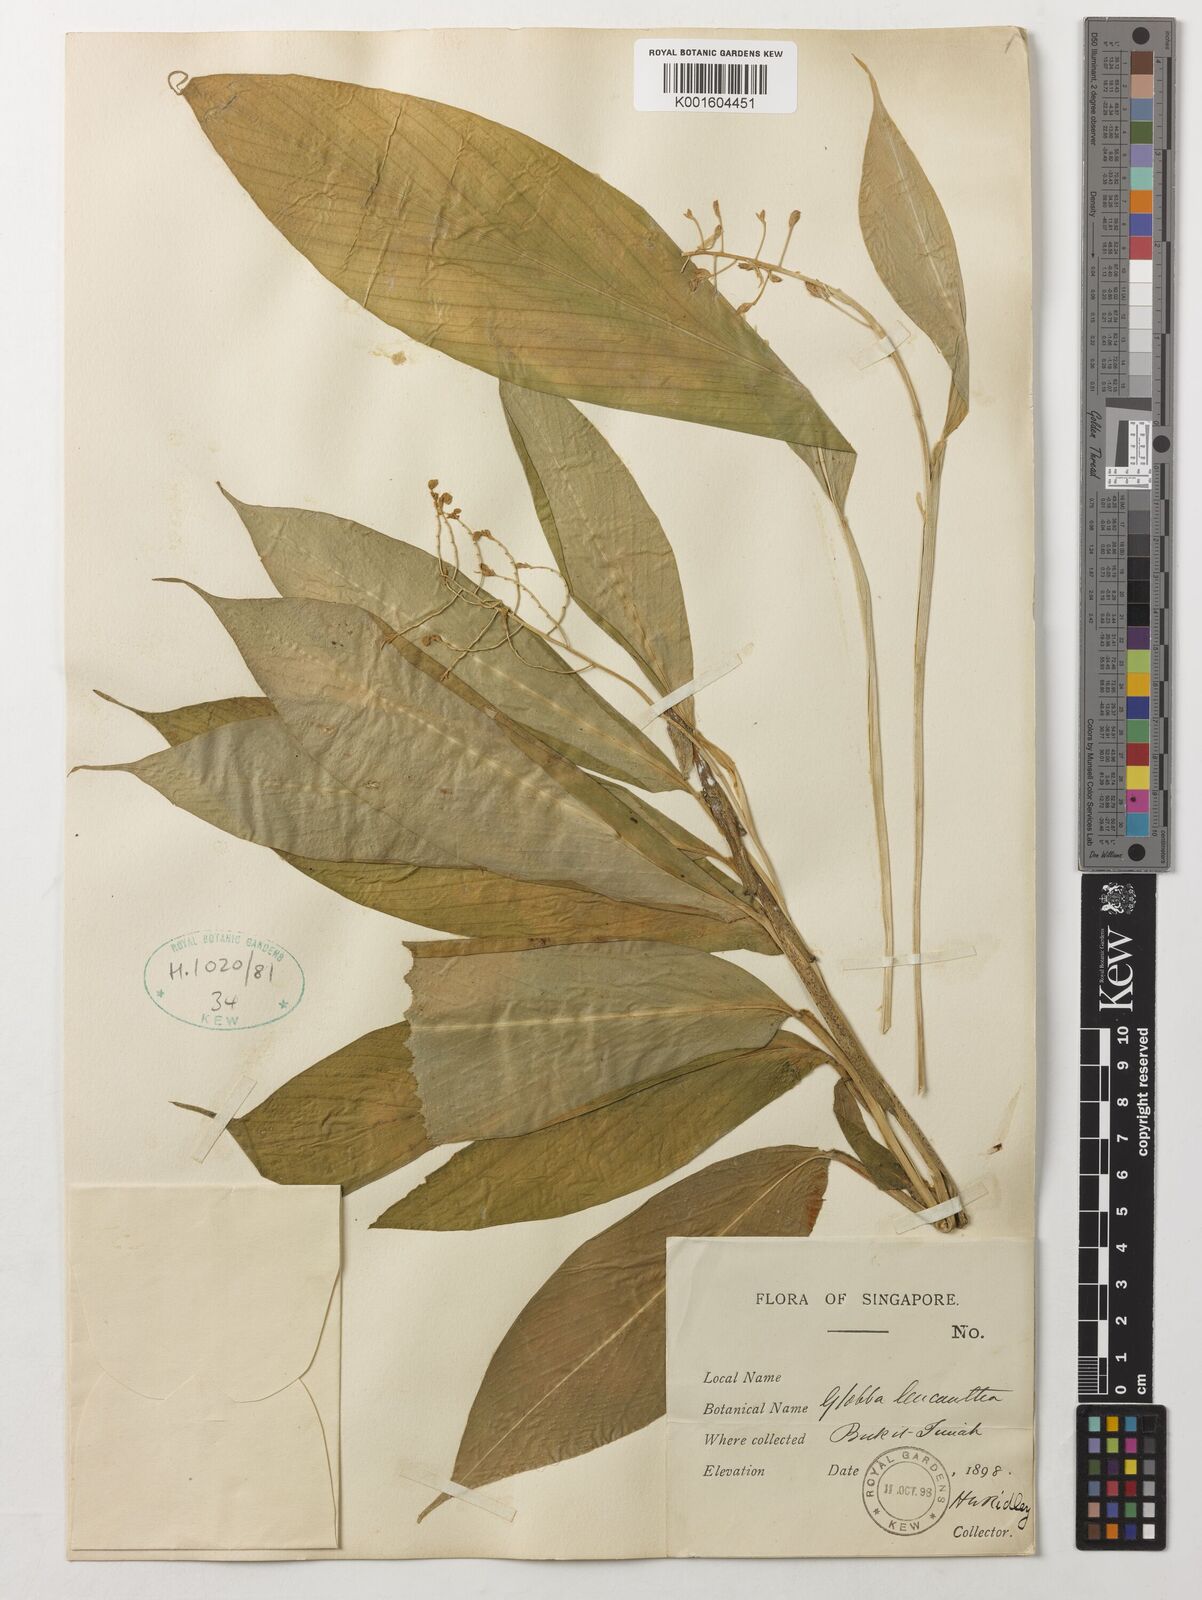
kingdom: Plantae
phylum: Tracheophyta
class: Liliopsida
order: Zingiberales
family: Zingiberaceae
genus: Globba
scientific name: Globba leucantha
